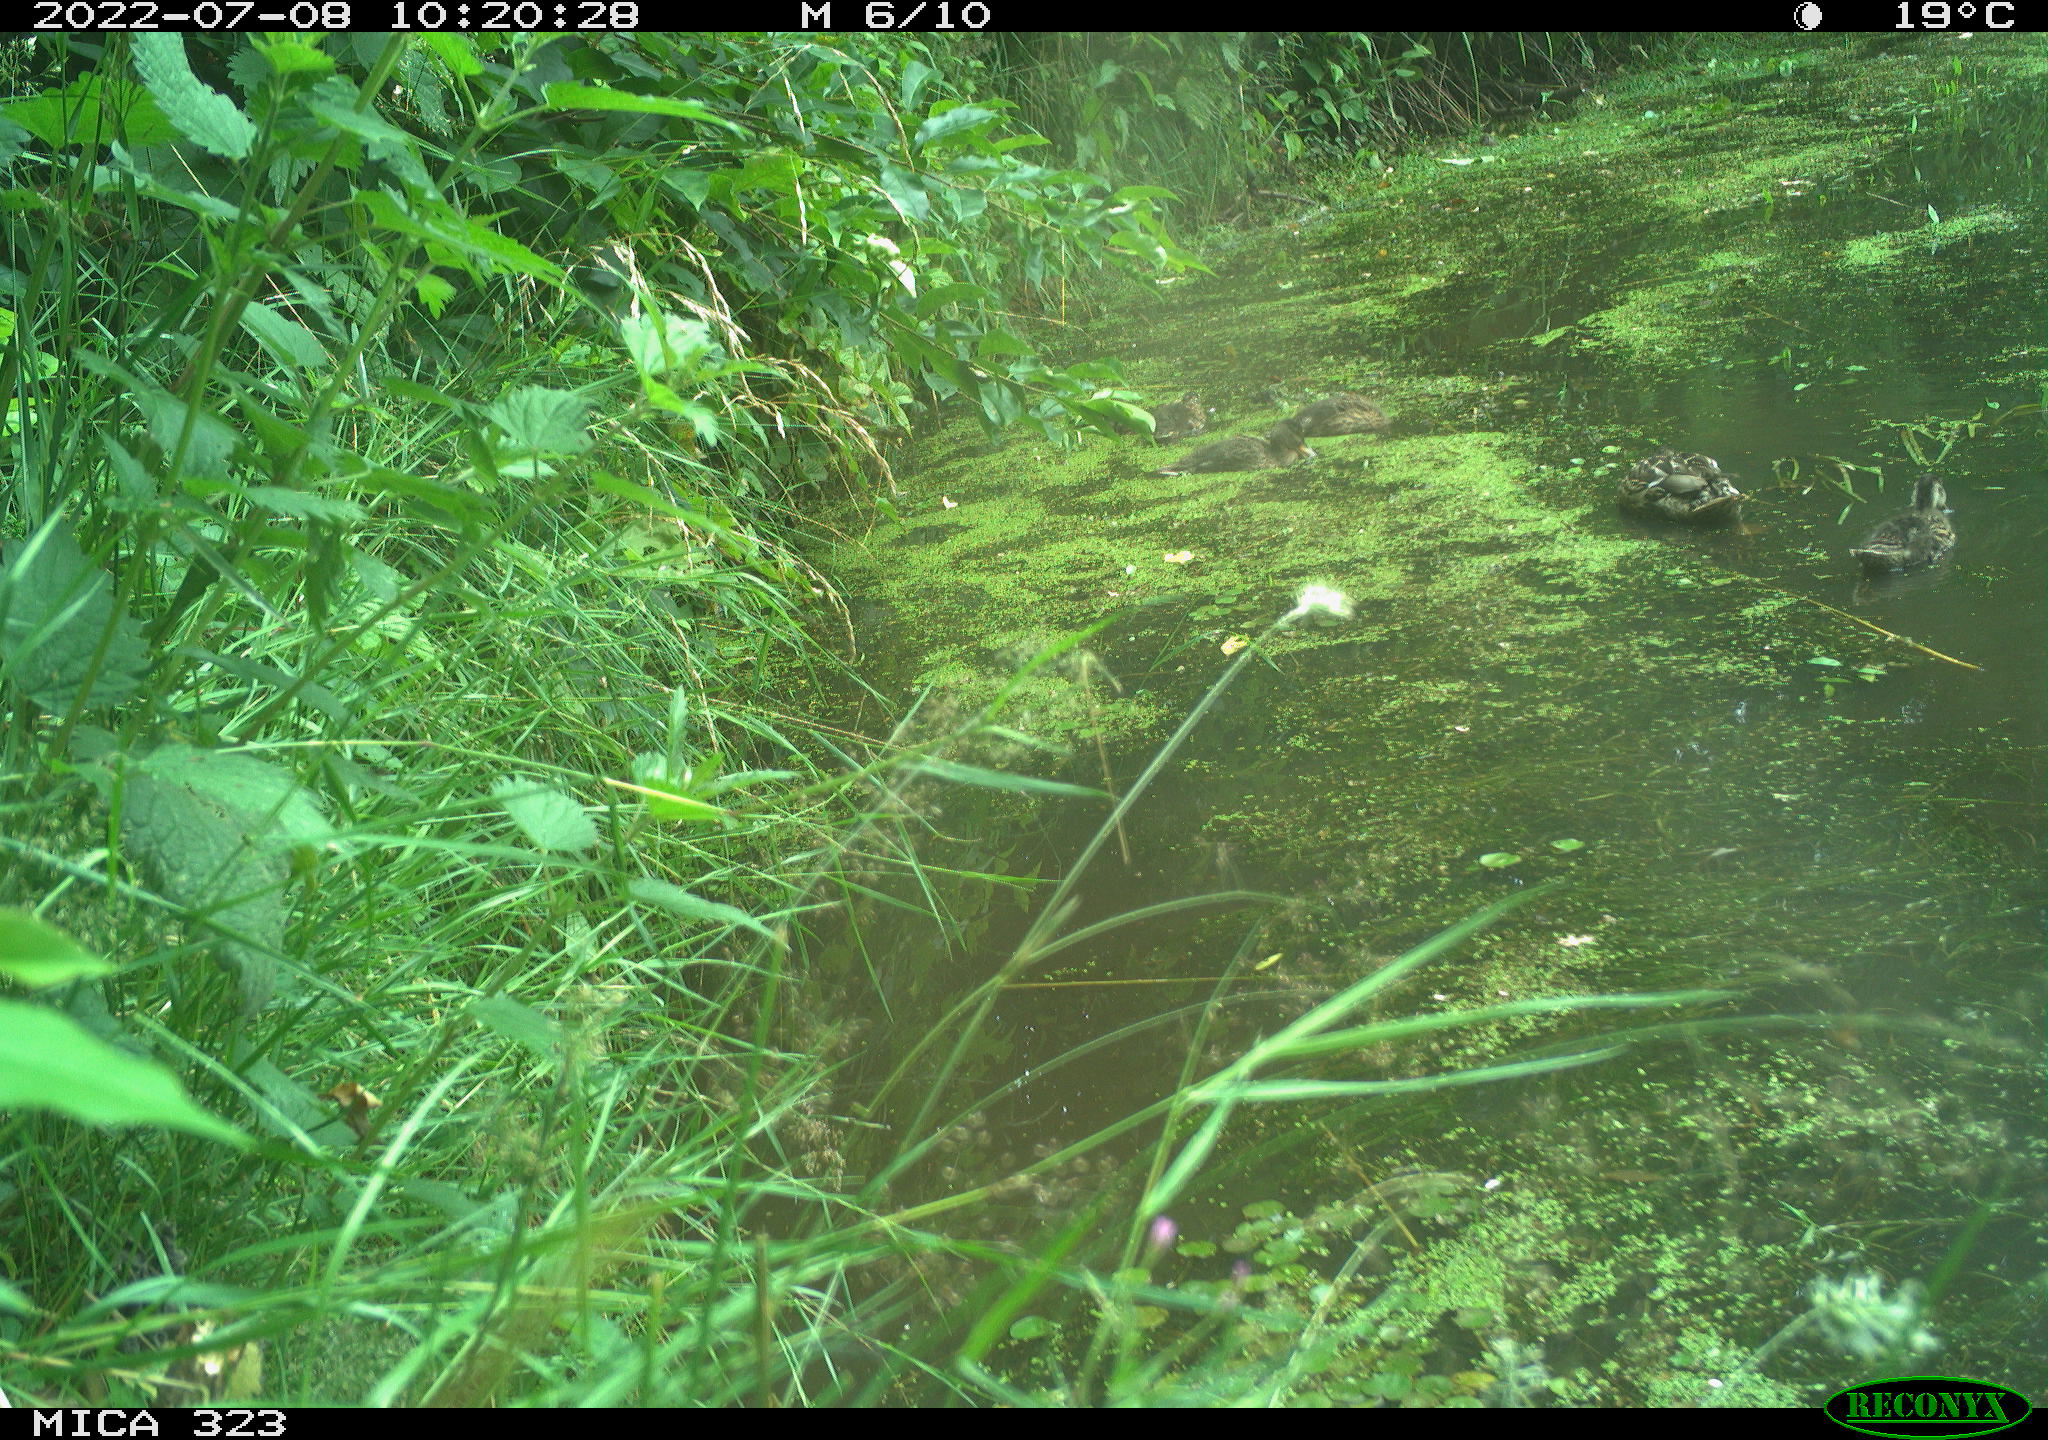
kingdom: Animalia
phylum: Chordata
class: Aves
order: Anseriformes
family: Anatidae
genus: Anas
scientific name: Anas platyrhynchos
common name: Mallard
